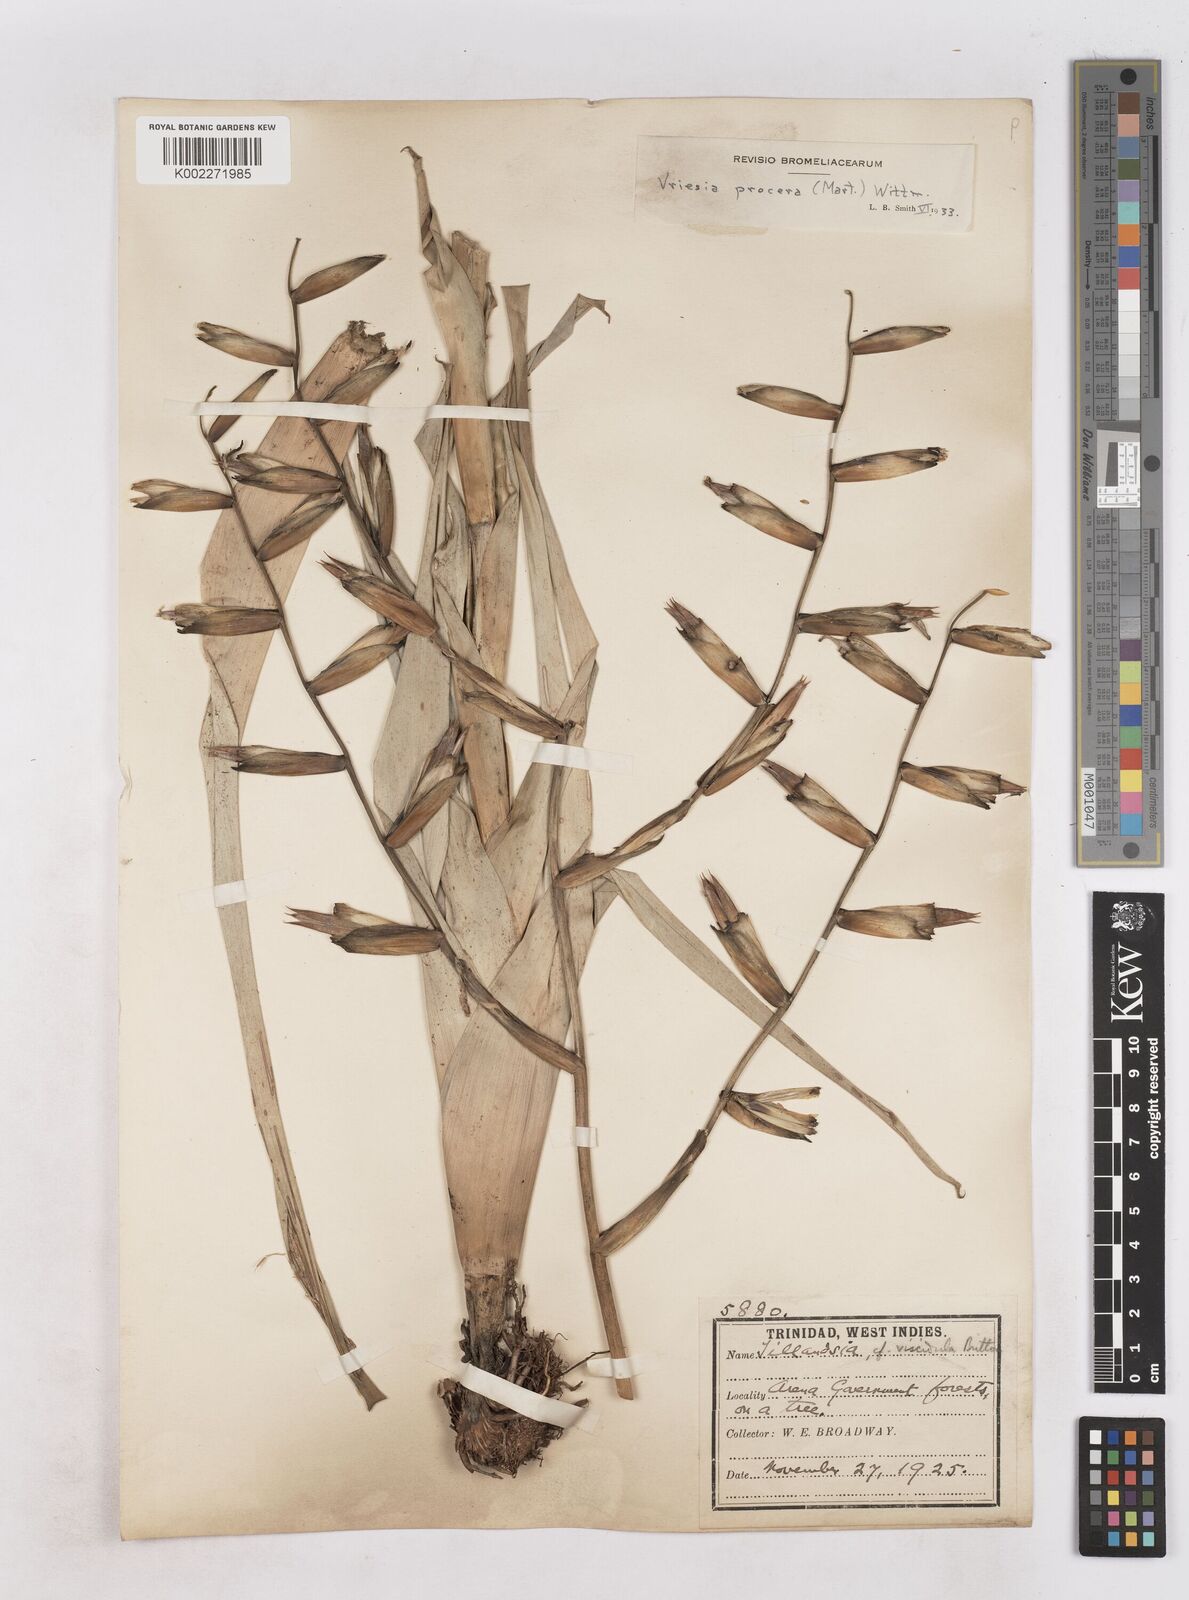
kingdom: Plantae
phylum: Tracheophyta
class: Liliopsida
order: Poales
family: Bromeliaceae
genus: Vriesea
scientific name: Vriesea procera
